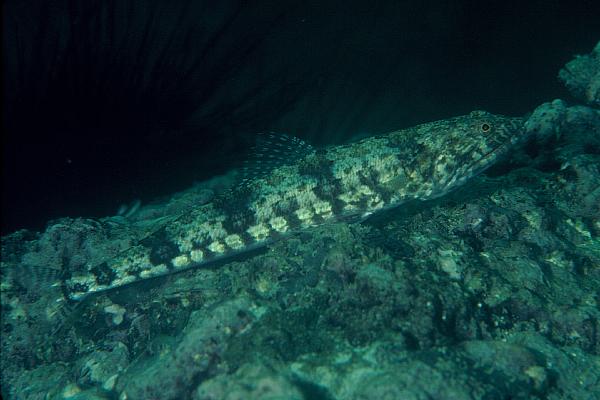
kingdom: Animalia
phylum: Chordata
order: Aulopiformes
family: Synodontidae
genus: Synodus
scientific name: Synodus variegatus
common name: Variegated lizardfish
